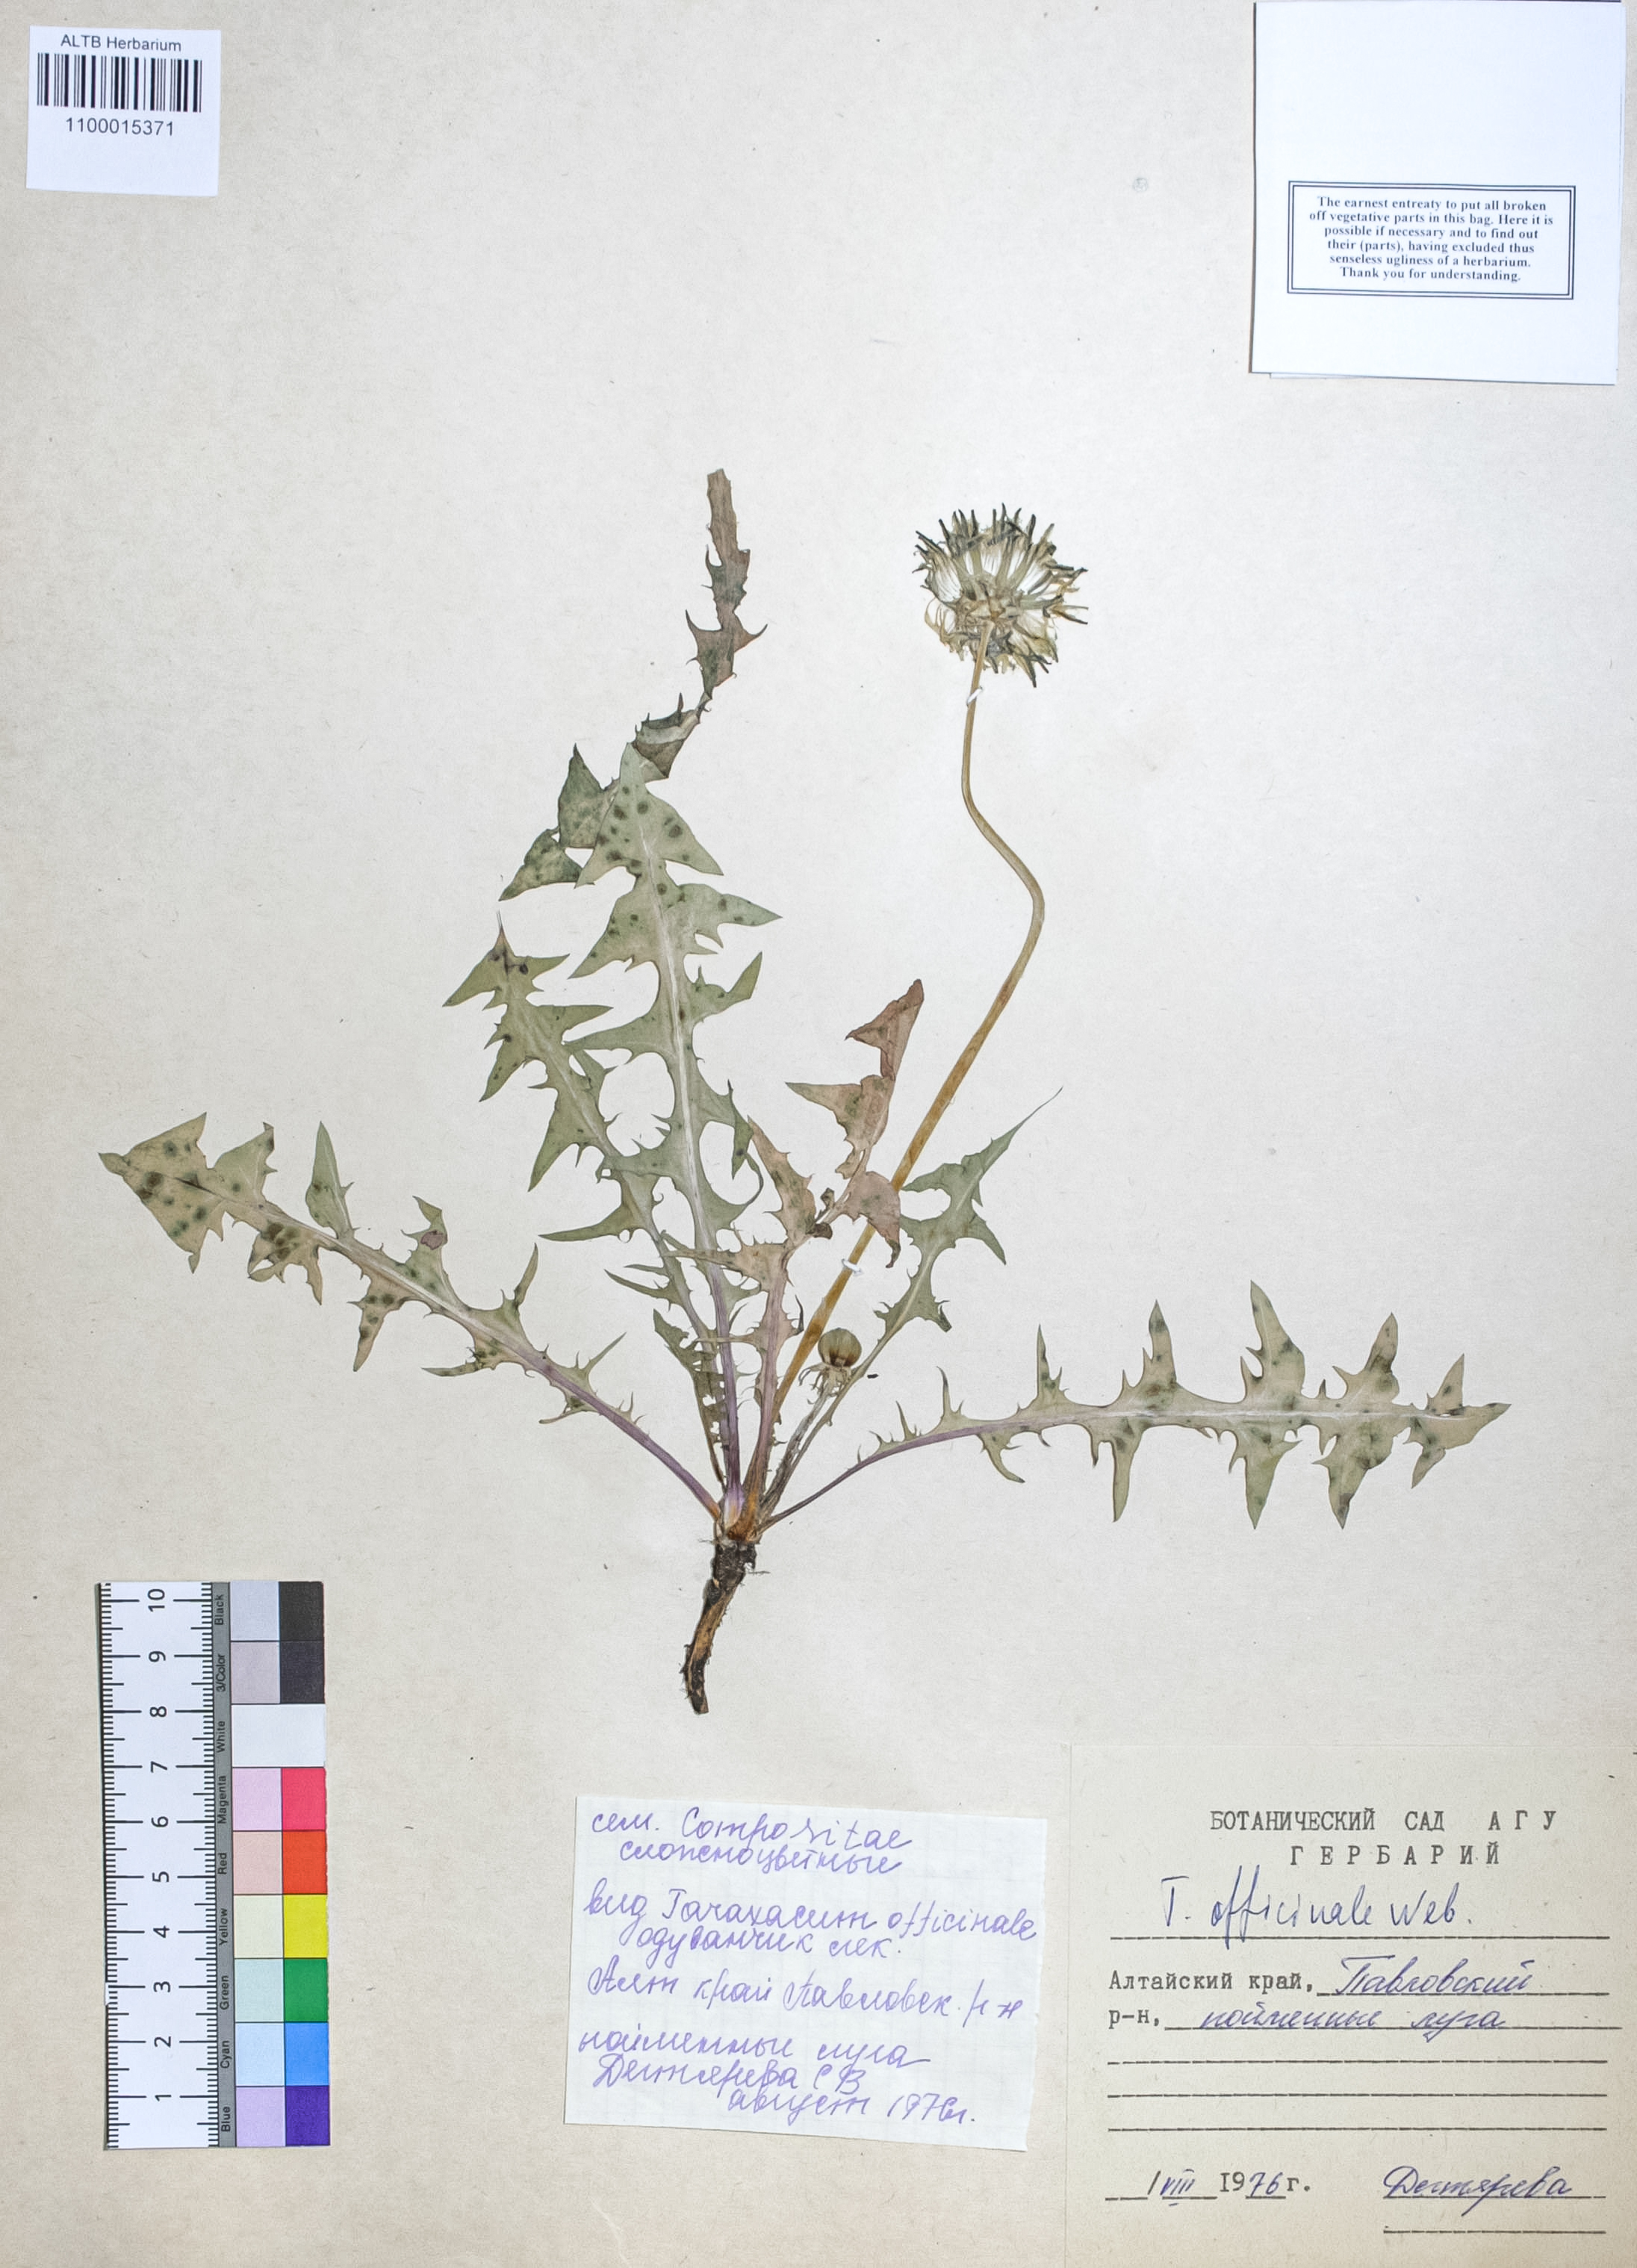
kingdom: Plantae
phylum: Tracheophyta
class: Magnoliopsida
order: Asterales
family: Asteraceae
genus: Taraxacum
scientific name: Taraxacum officinale
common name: Common dandelion
